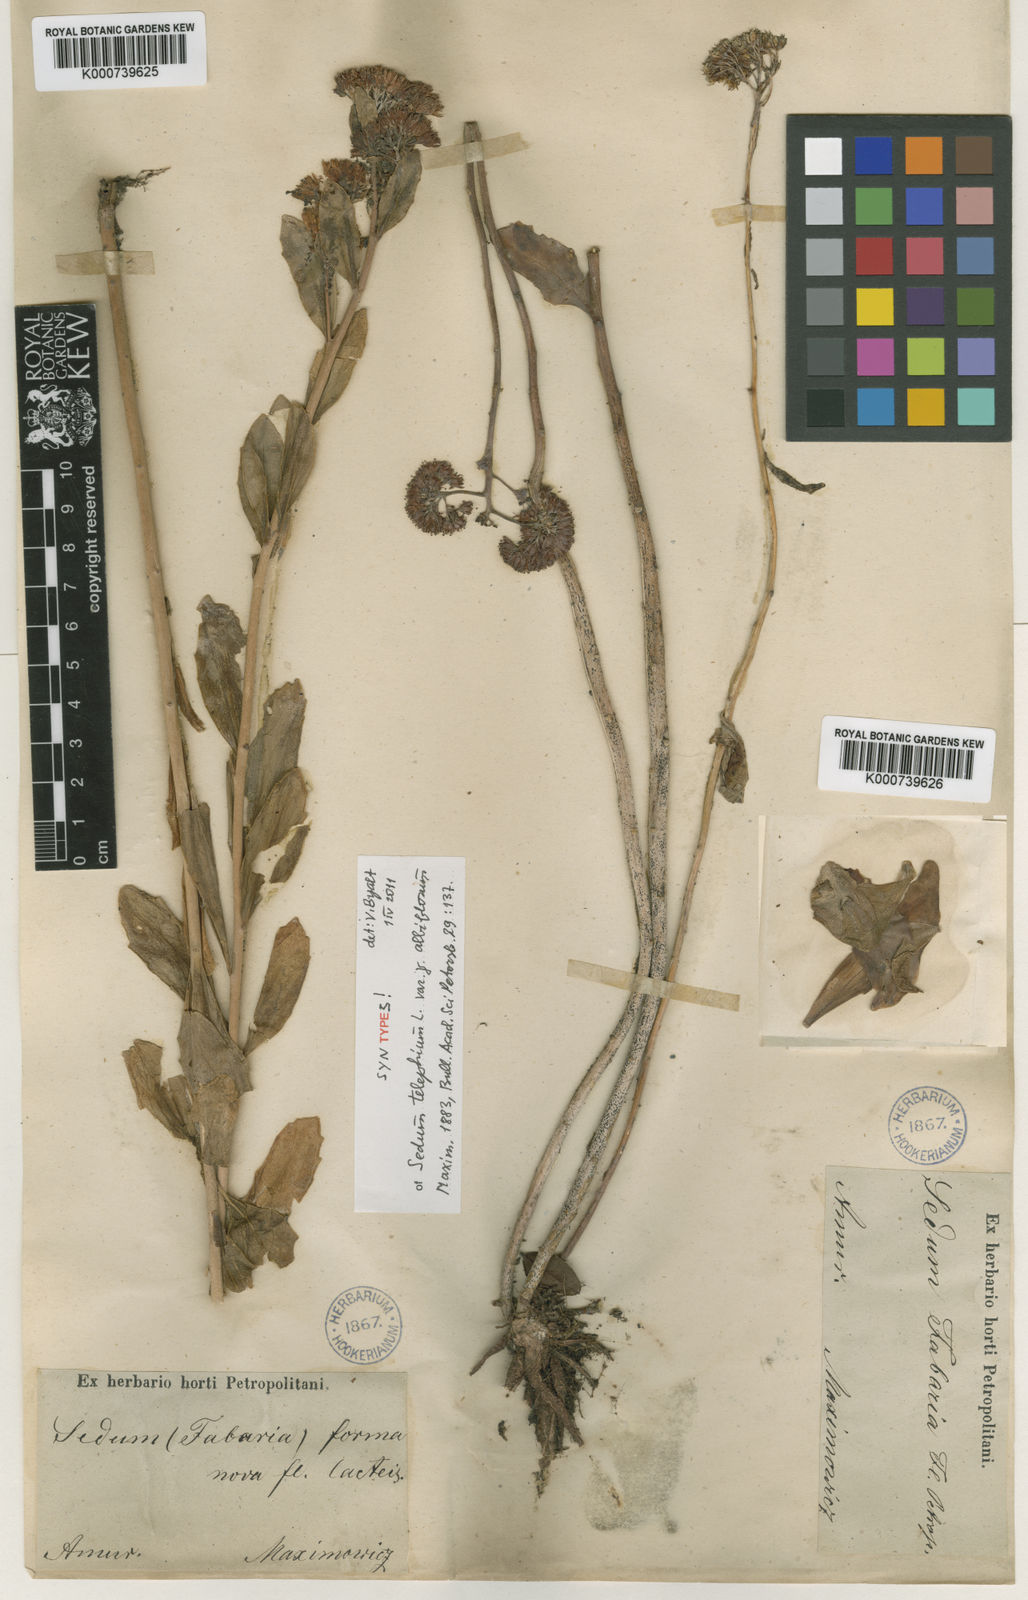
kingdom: Plantae
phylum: Tracheophyta
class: Magnoliopsida
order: Saxifragales
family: Crassulaceae
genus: Sedum
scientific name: Sedum
